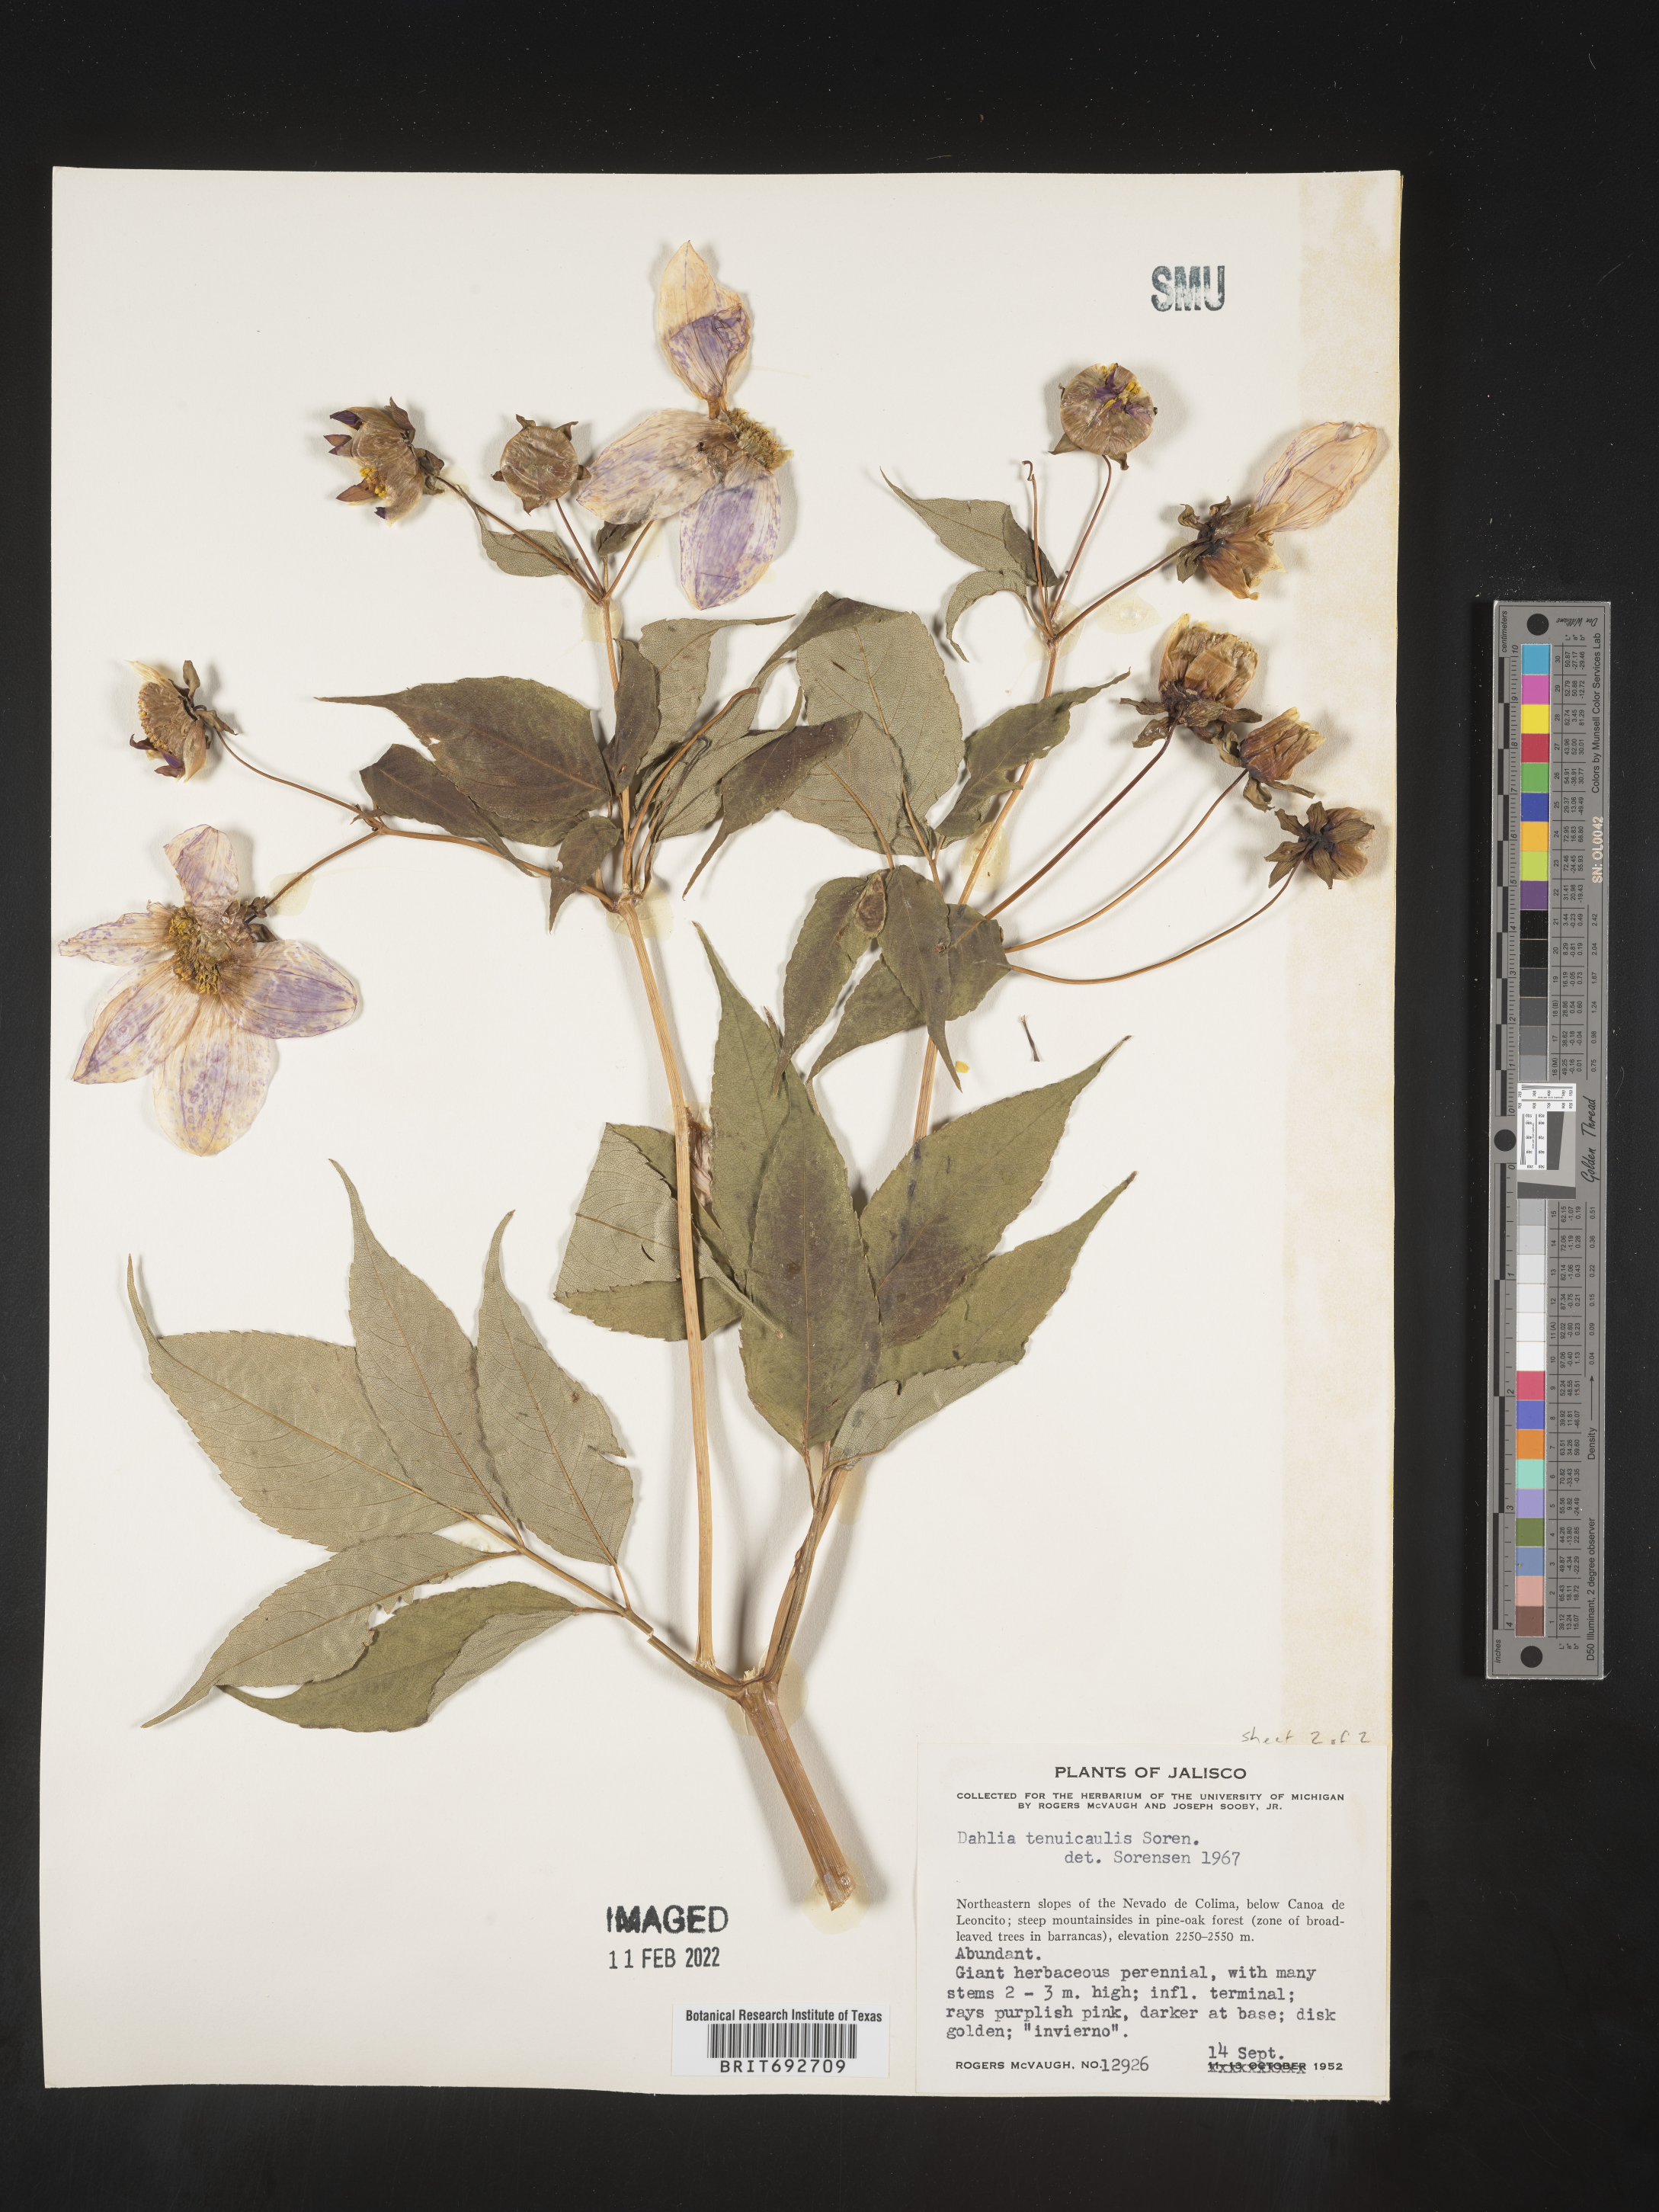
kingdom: Plantae
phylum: Tracheophyta
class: Magnoliopsida
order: Asterales
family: Asteraceae
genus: Dahlia
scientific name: Dahlia
